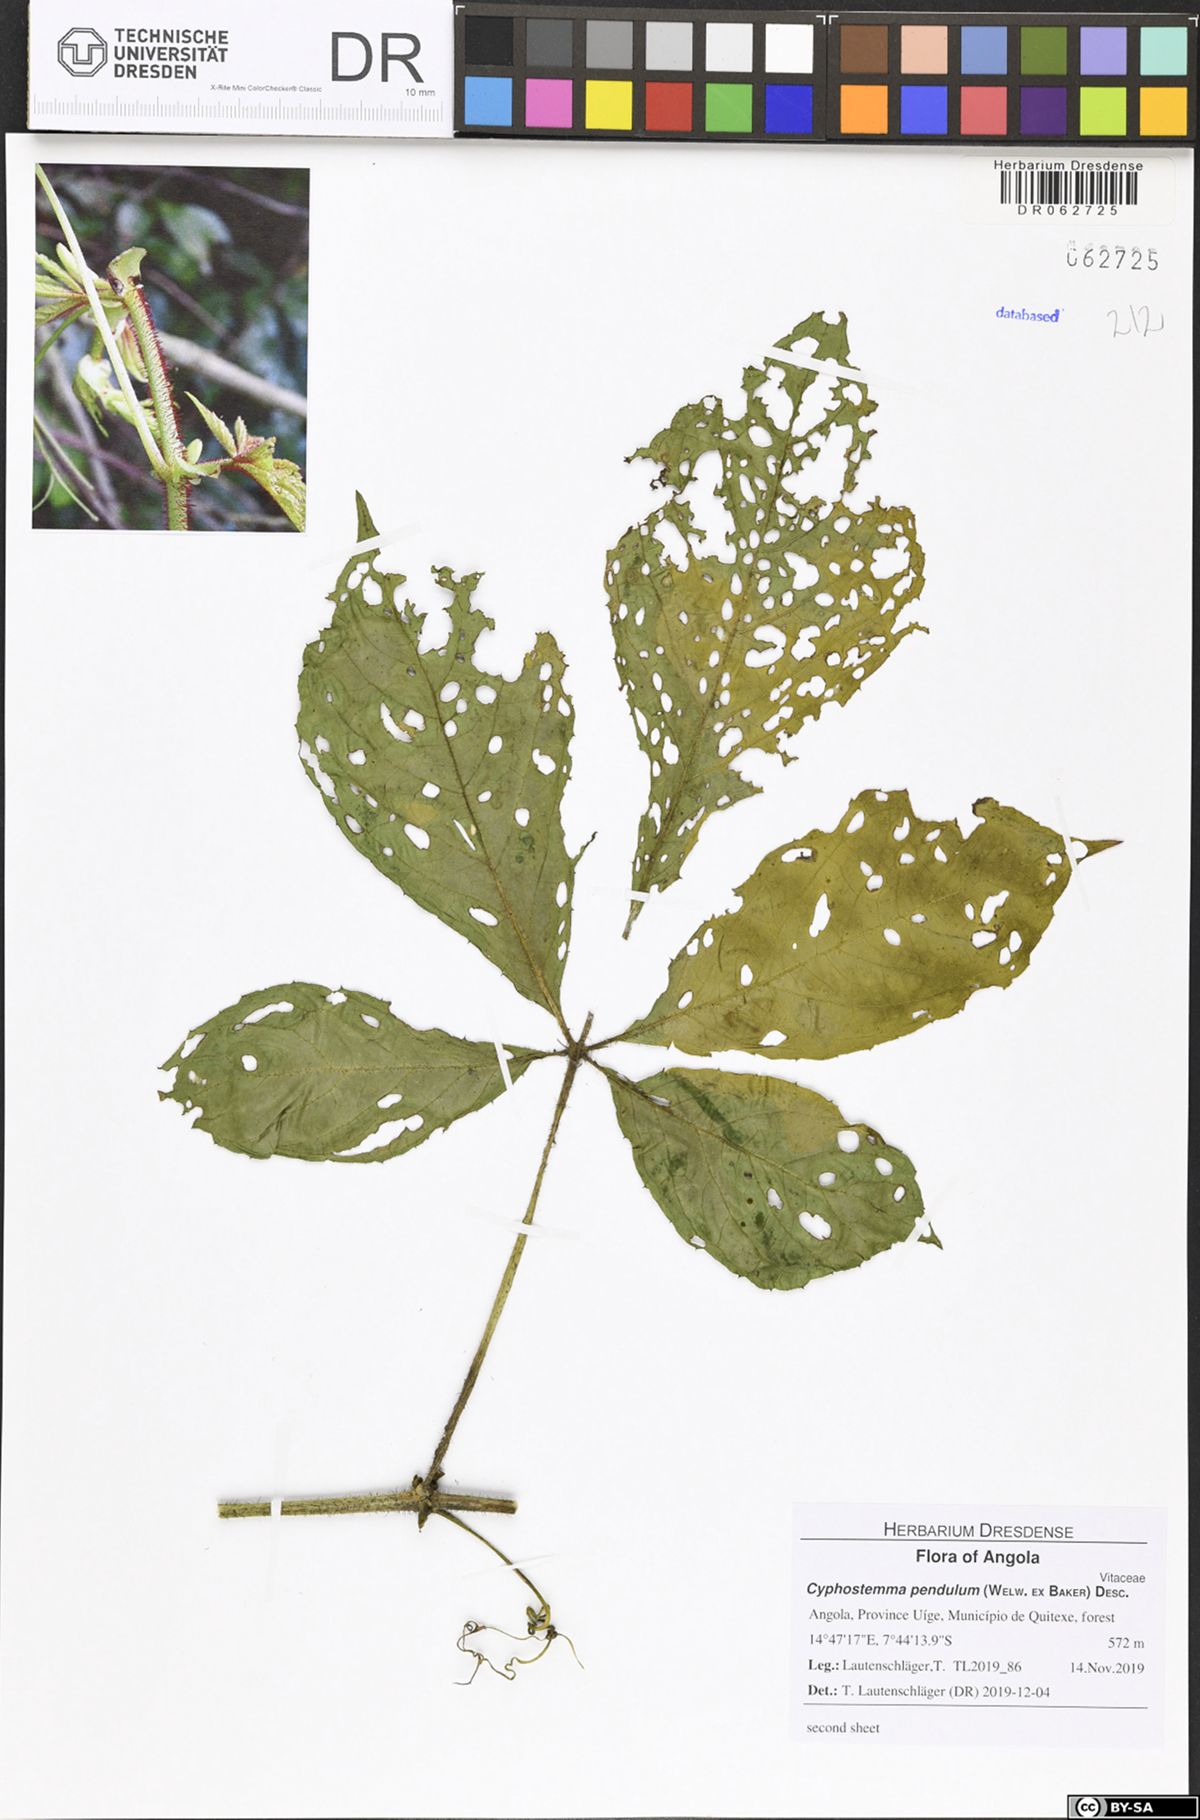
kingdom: Plantae
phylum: Tracheophyta
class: Magnoliopsida
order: Vitales
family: Vitaceae
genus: Cyphostemma
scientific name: Cyphostemma pendulum
